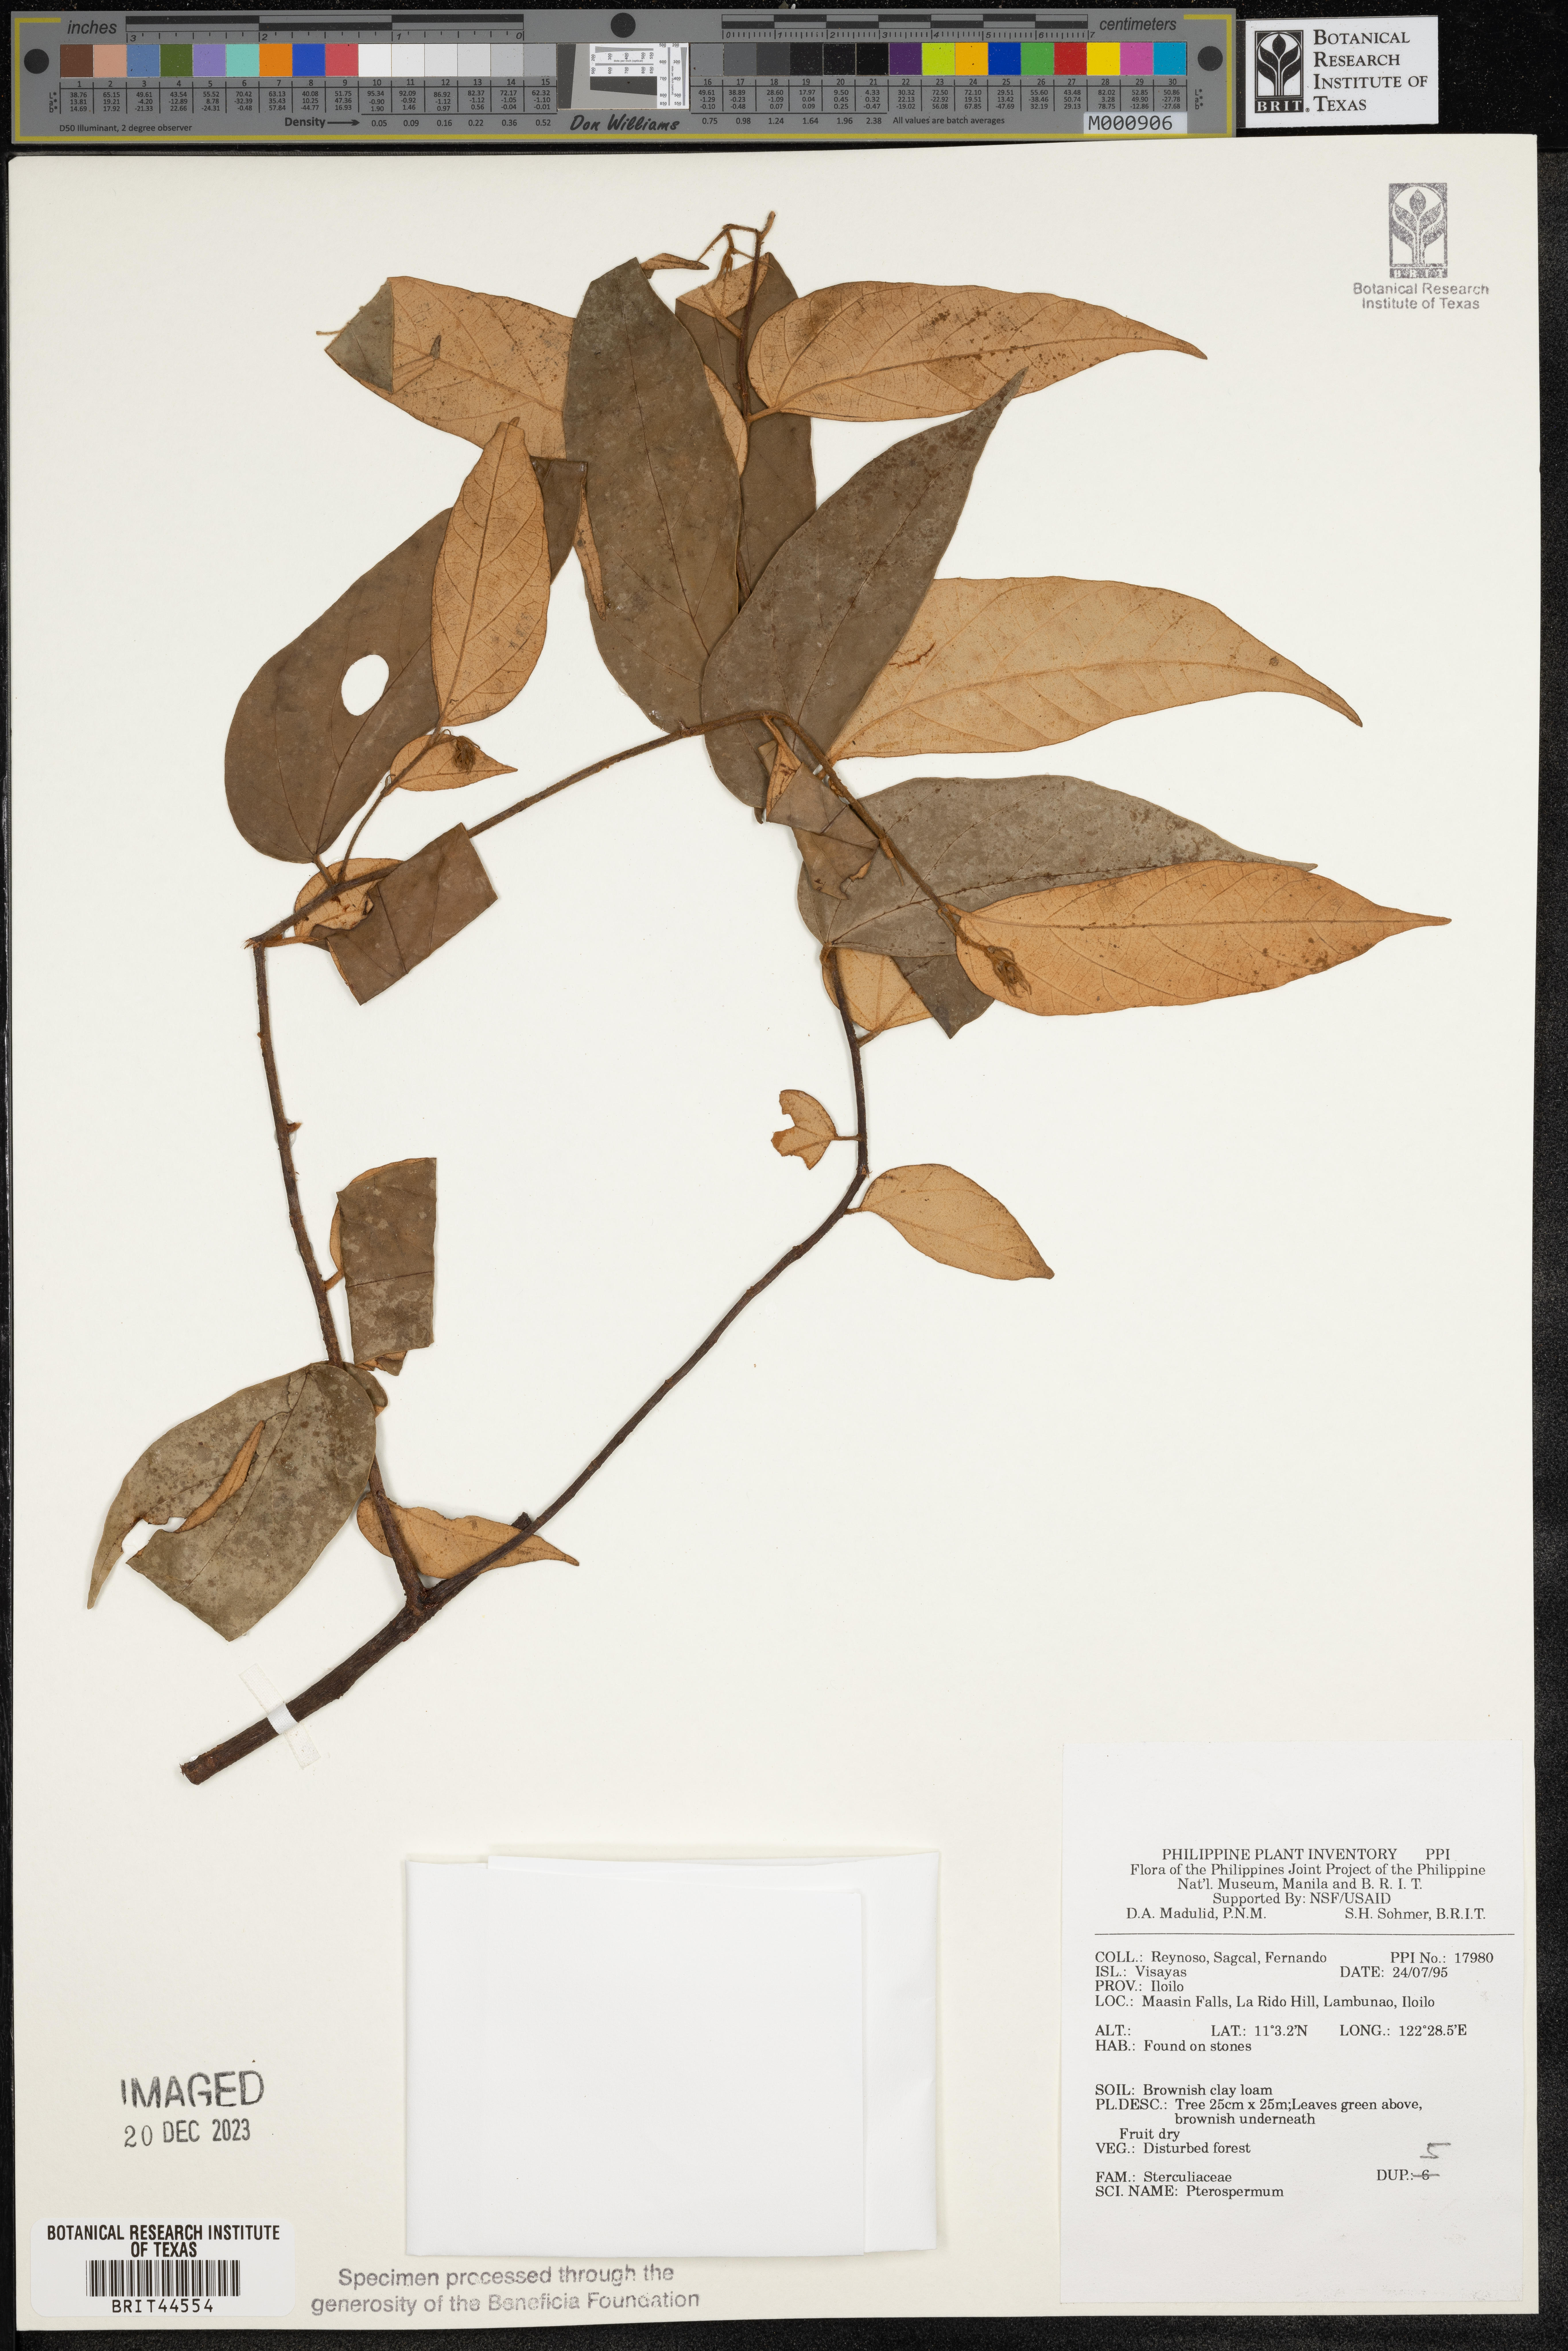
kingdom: Plantae
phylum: Tracheophyta
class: Magnoliopsida
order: Malvales
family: Malvaceae
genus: Pterospermum
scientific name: Pterospermum
